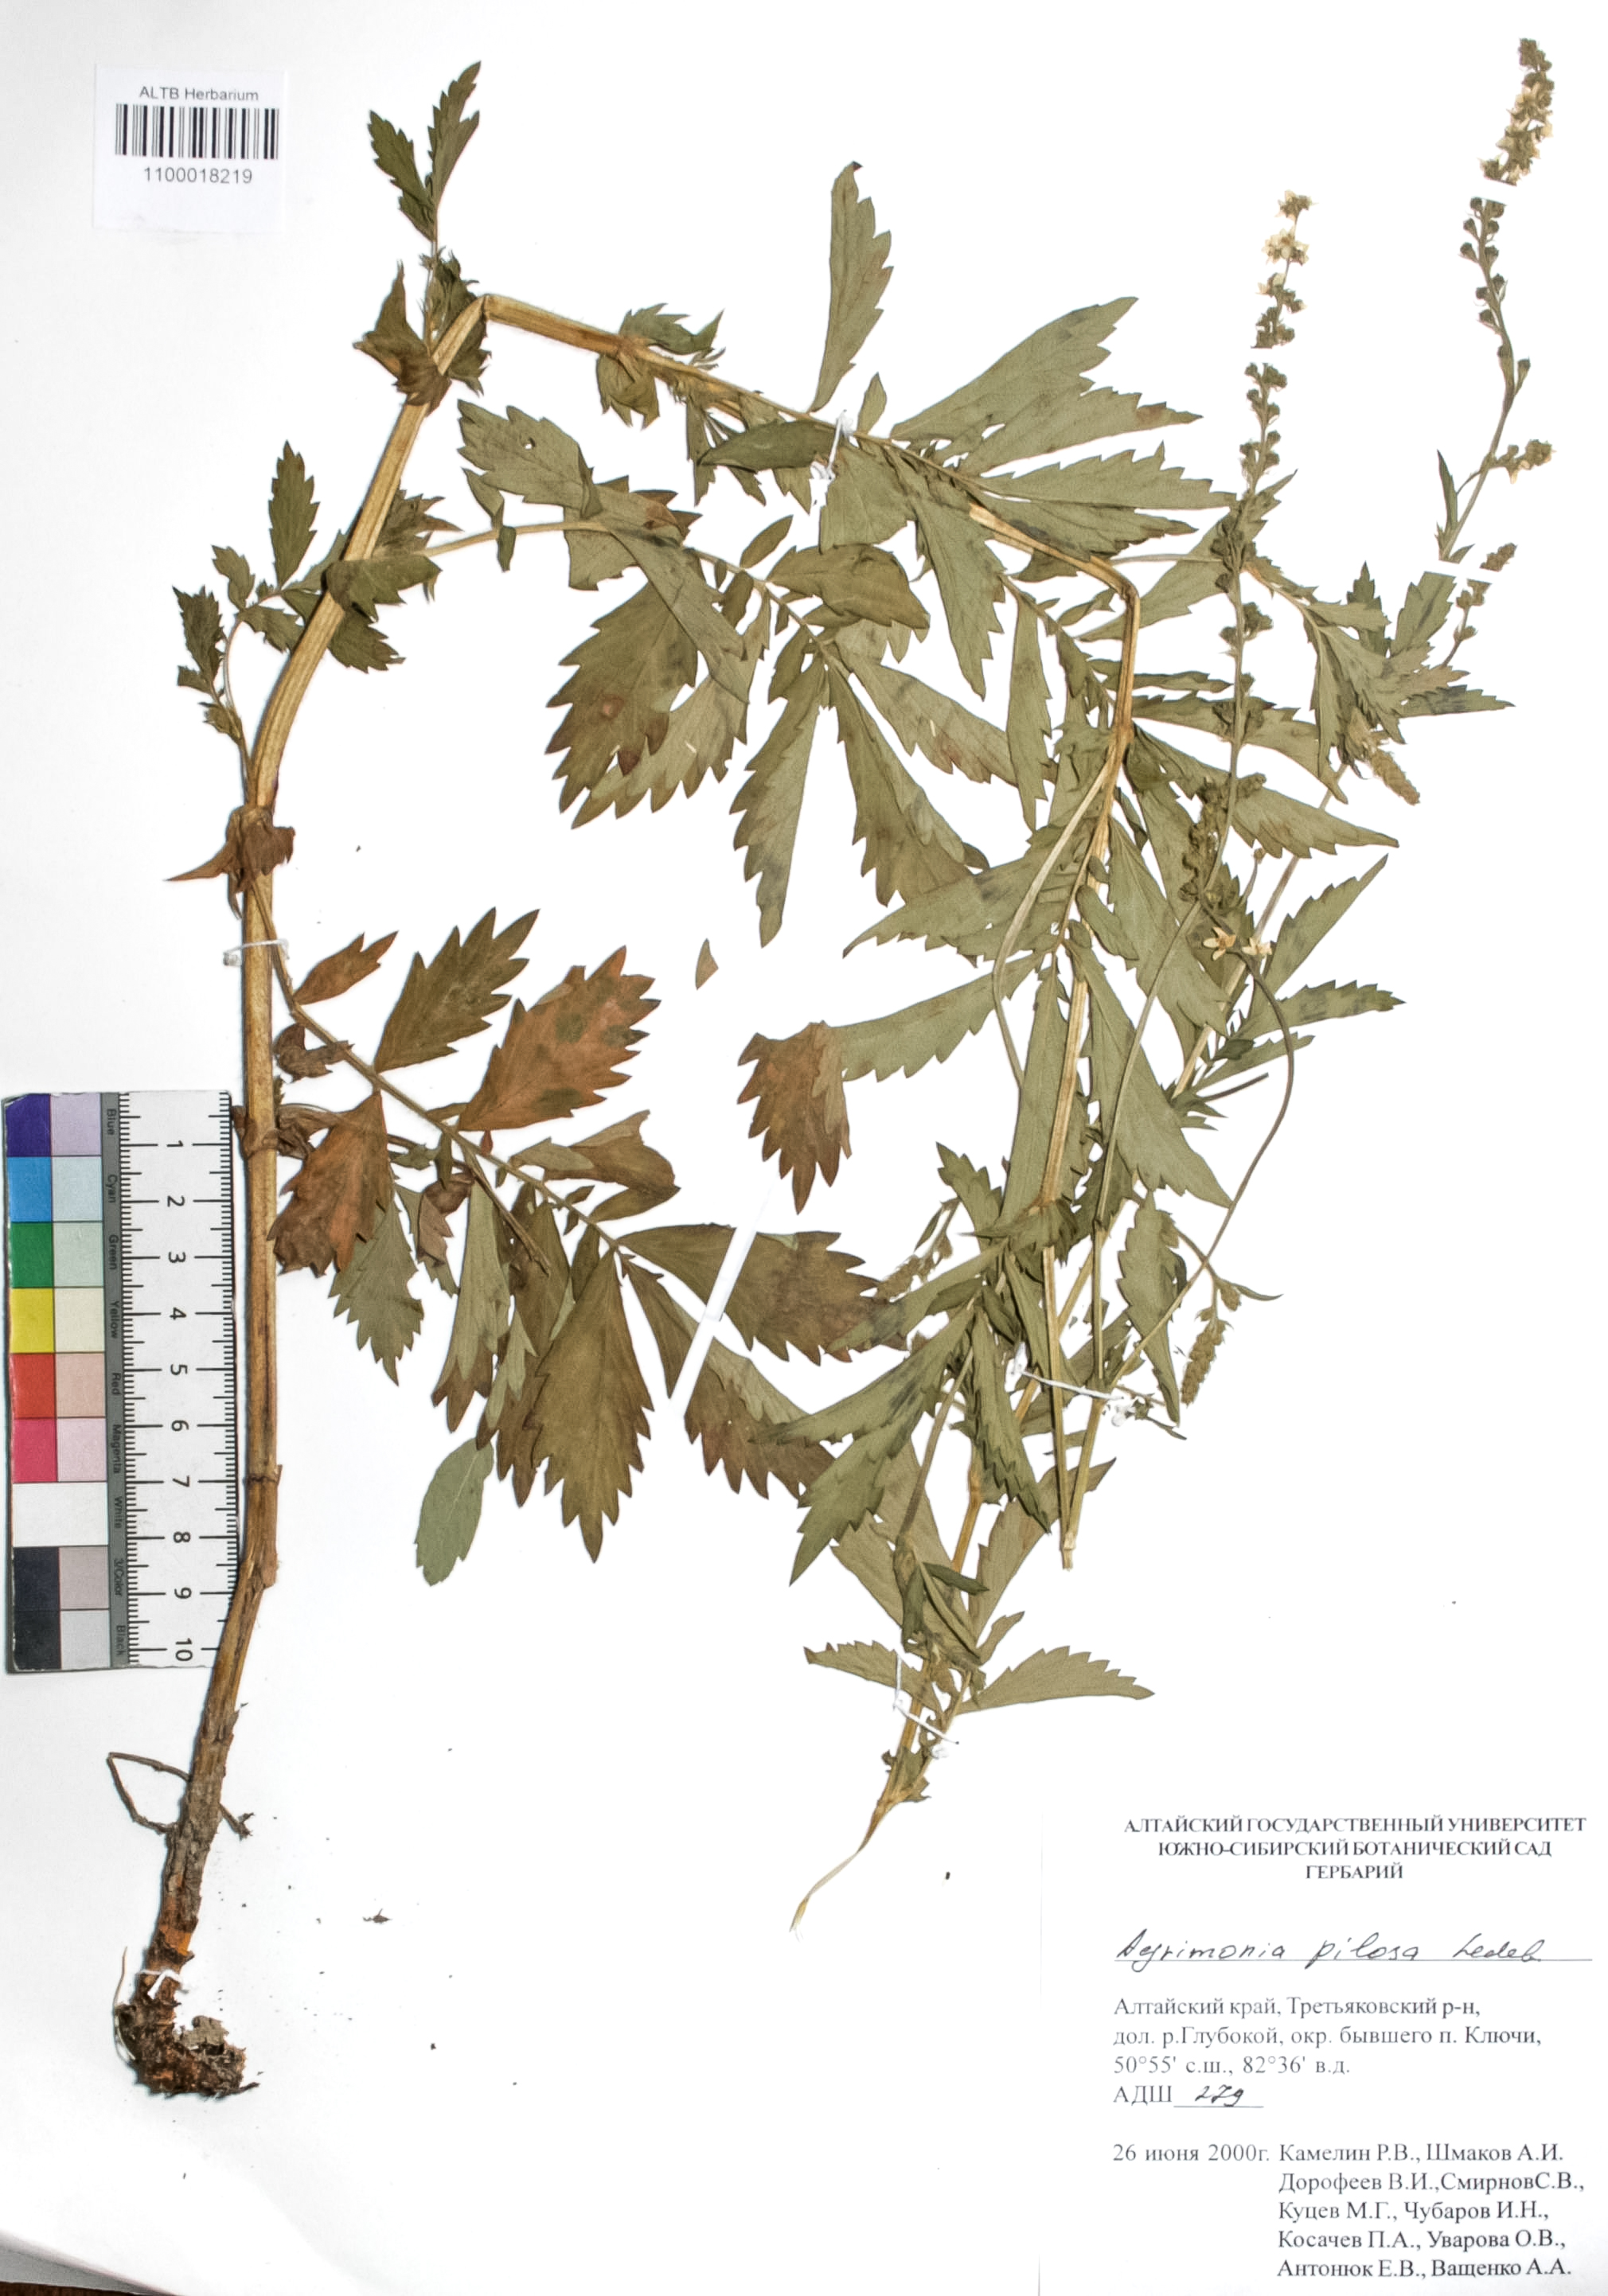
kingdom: Plantae
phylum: Tracheophyta
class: Magnoliopsida
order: Rosales
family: Rosaceae
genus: Agrimonia
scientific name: Agrimonia pilosa
